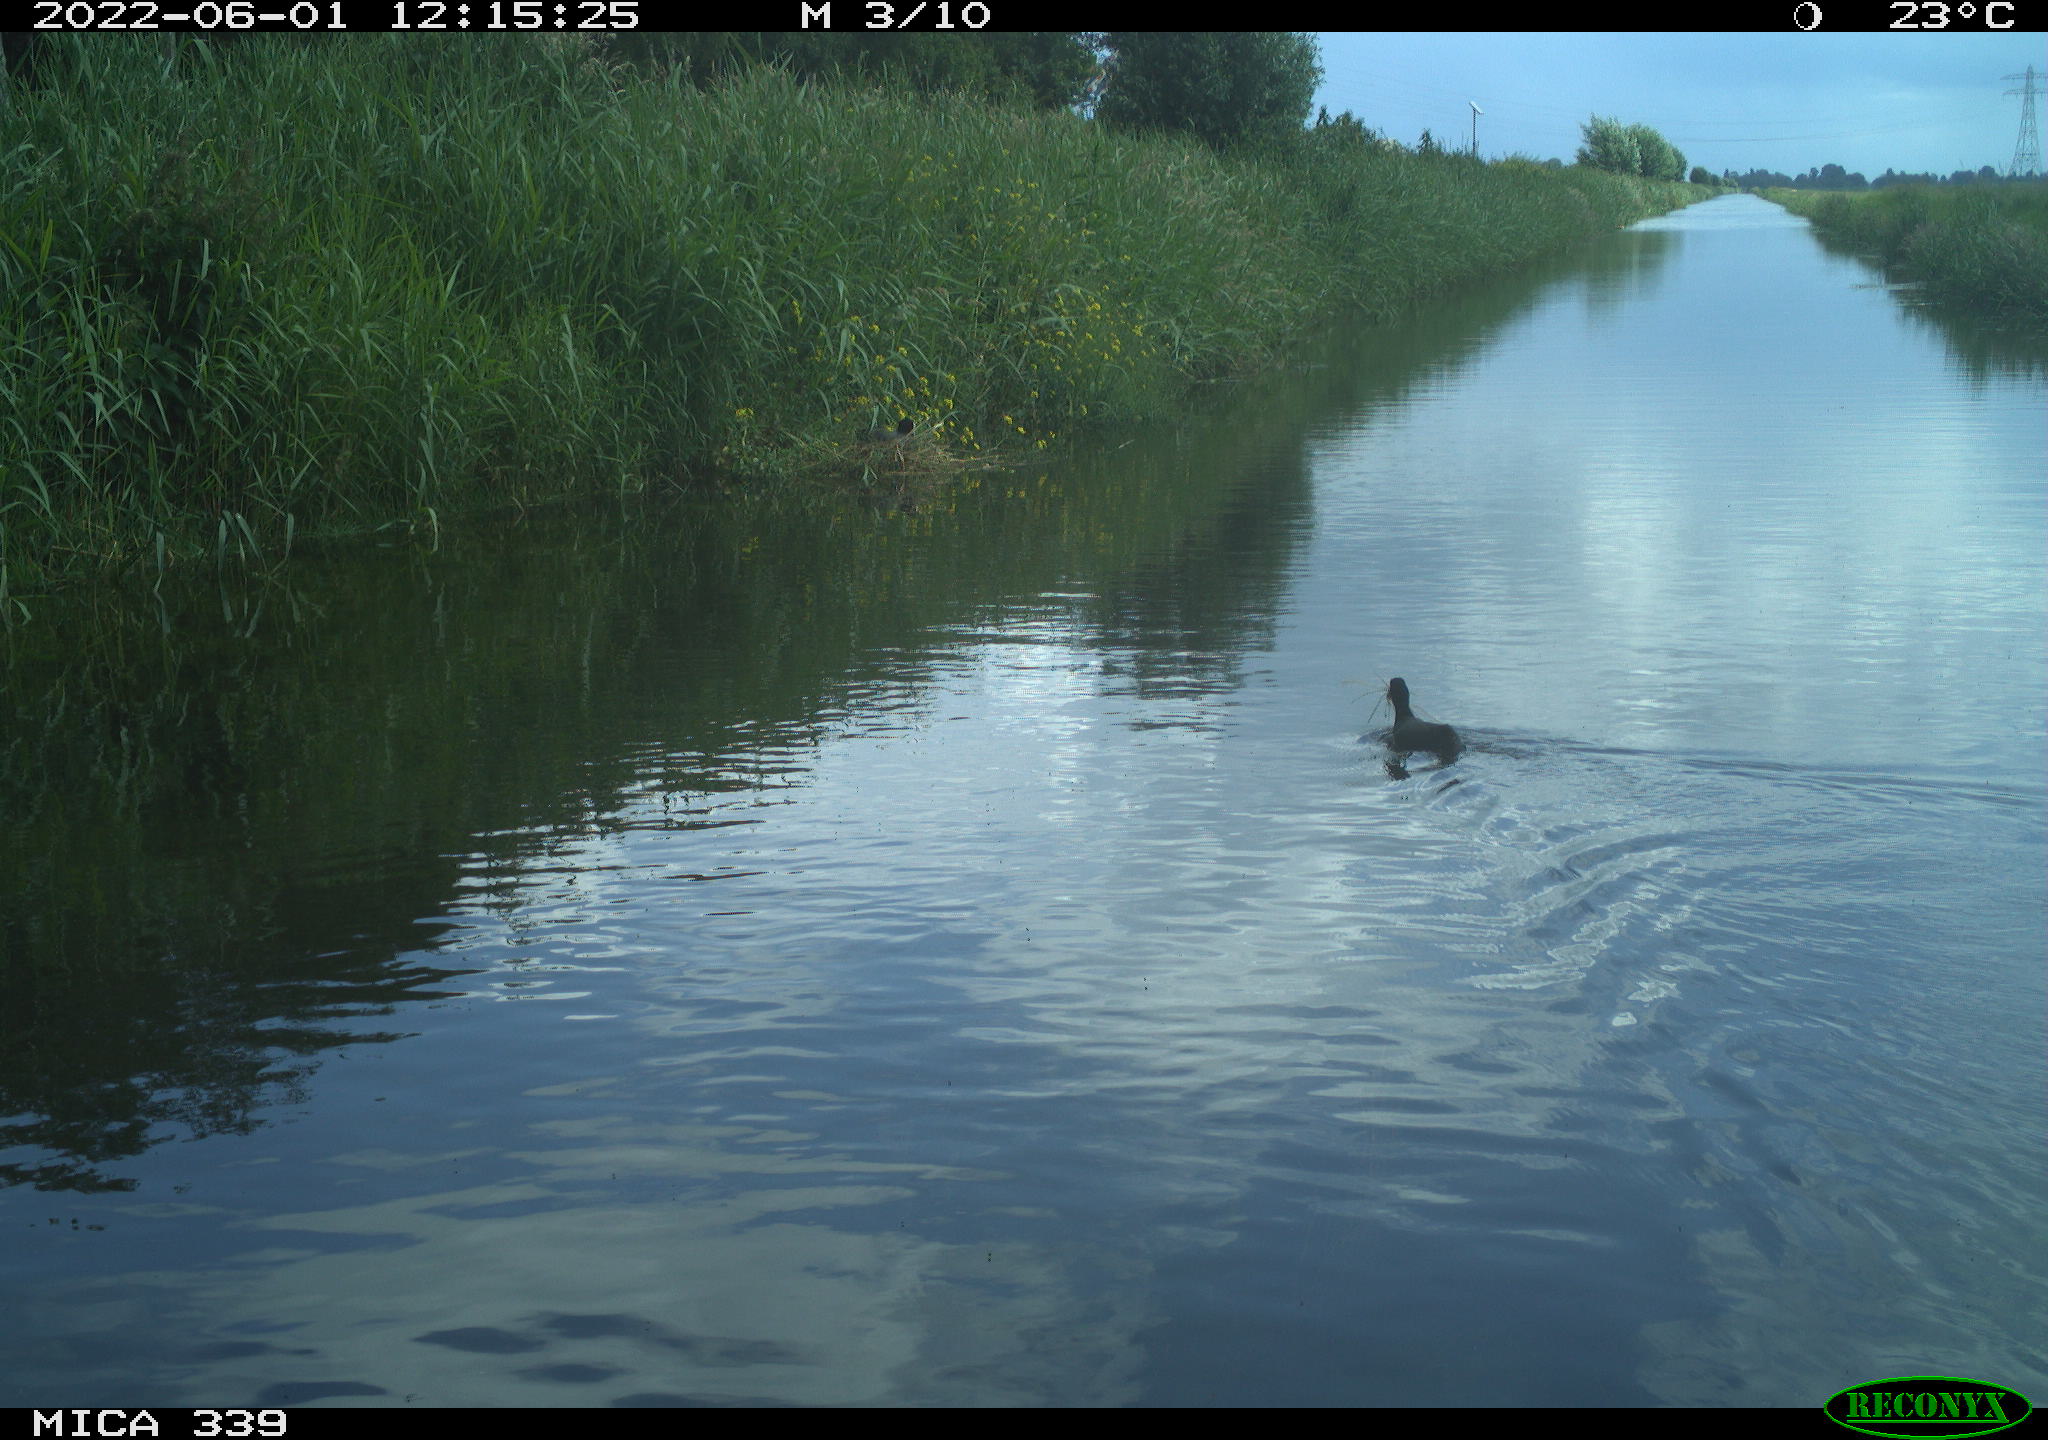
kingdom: Animalia
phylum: Chordata
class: Aves
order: Gruiformes
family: Rallidae
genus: Fulica
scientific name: Fulica atra
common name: Eurasian coot
